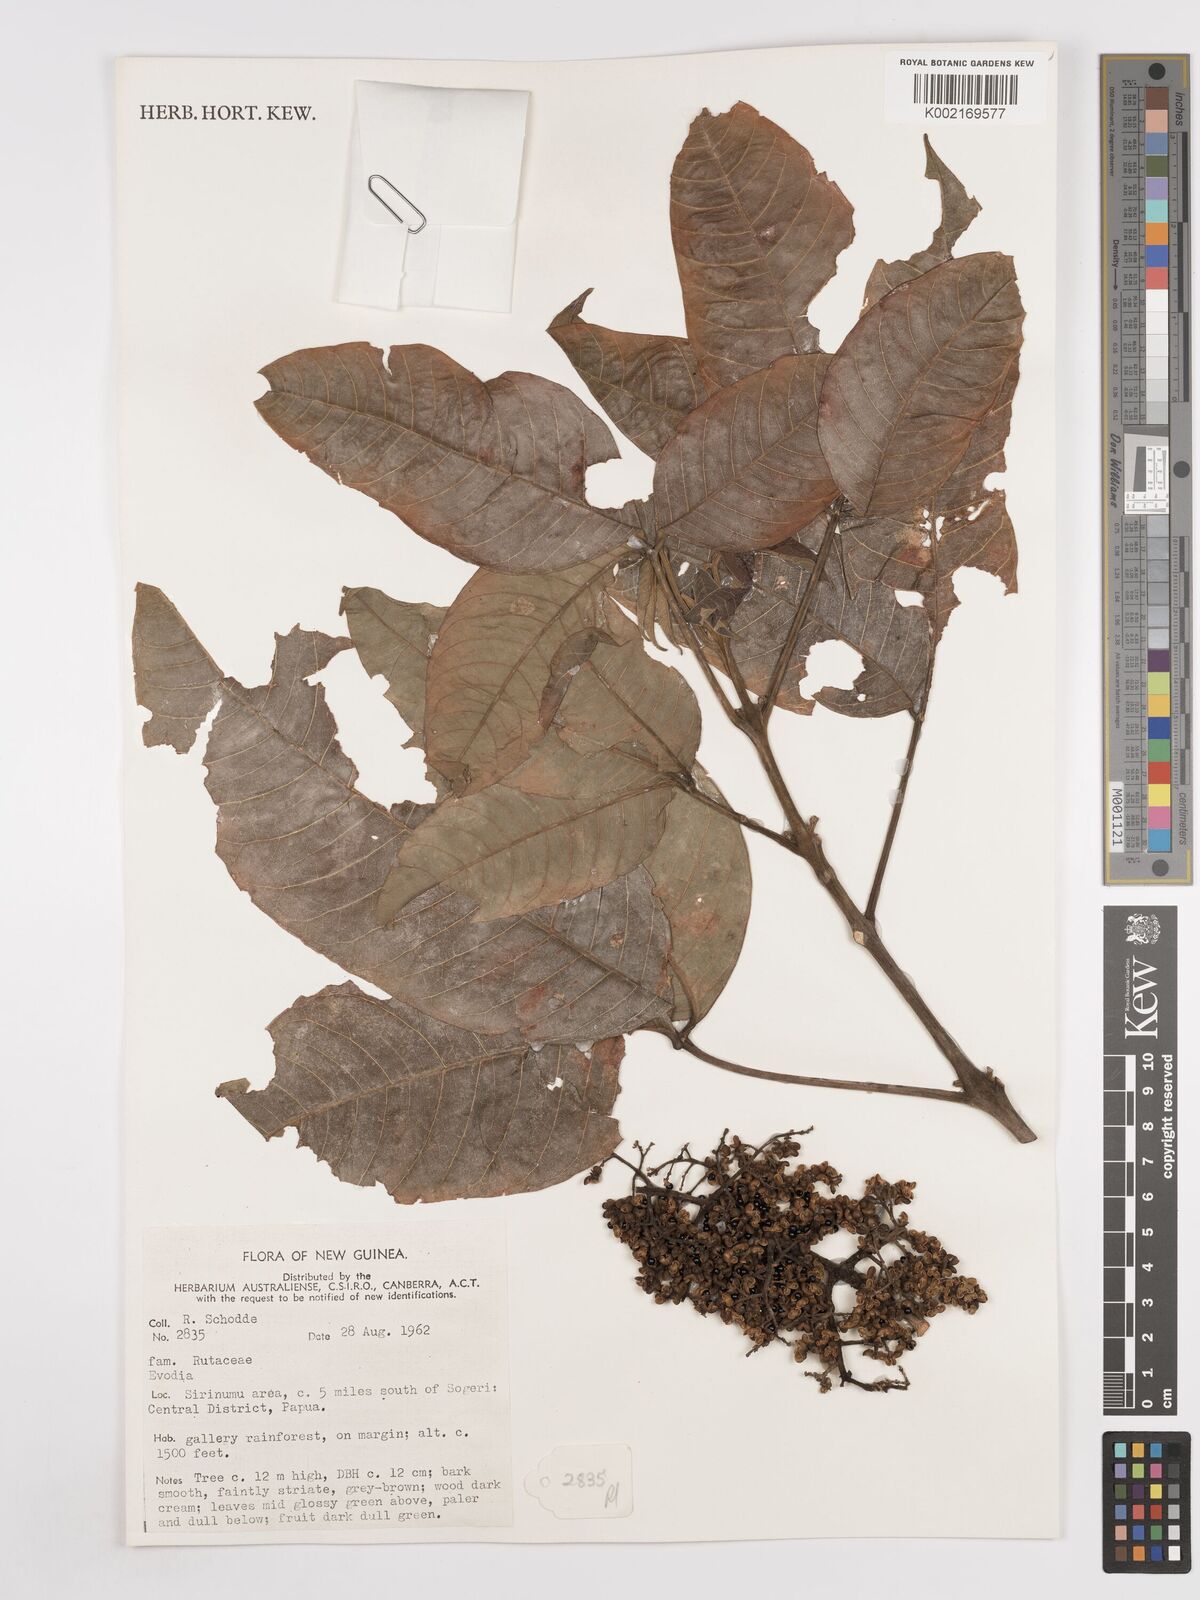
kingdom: Plantae
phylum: Tracheophyta
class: Magnoliopsida
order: Sapindales
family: Rutaceae
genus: Euodia
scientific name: Euodia
